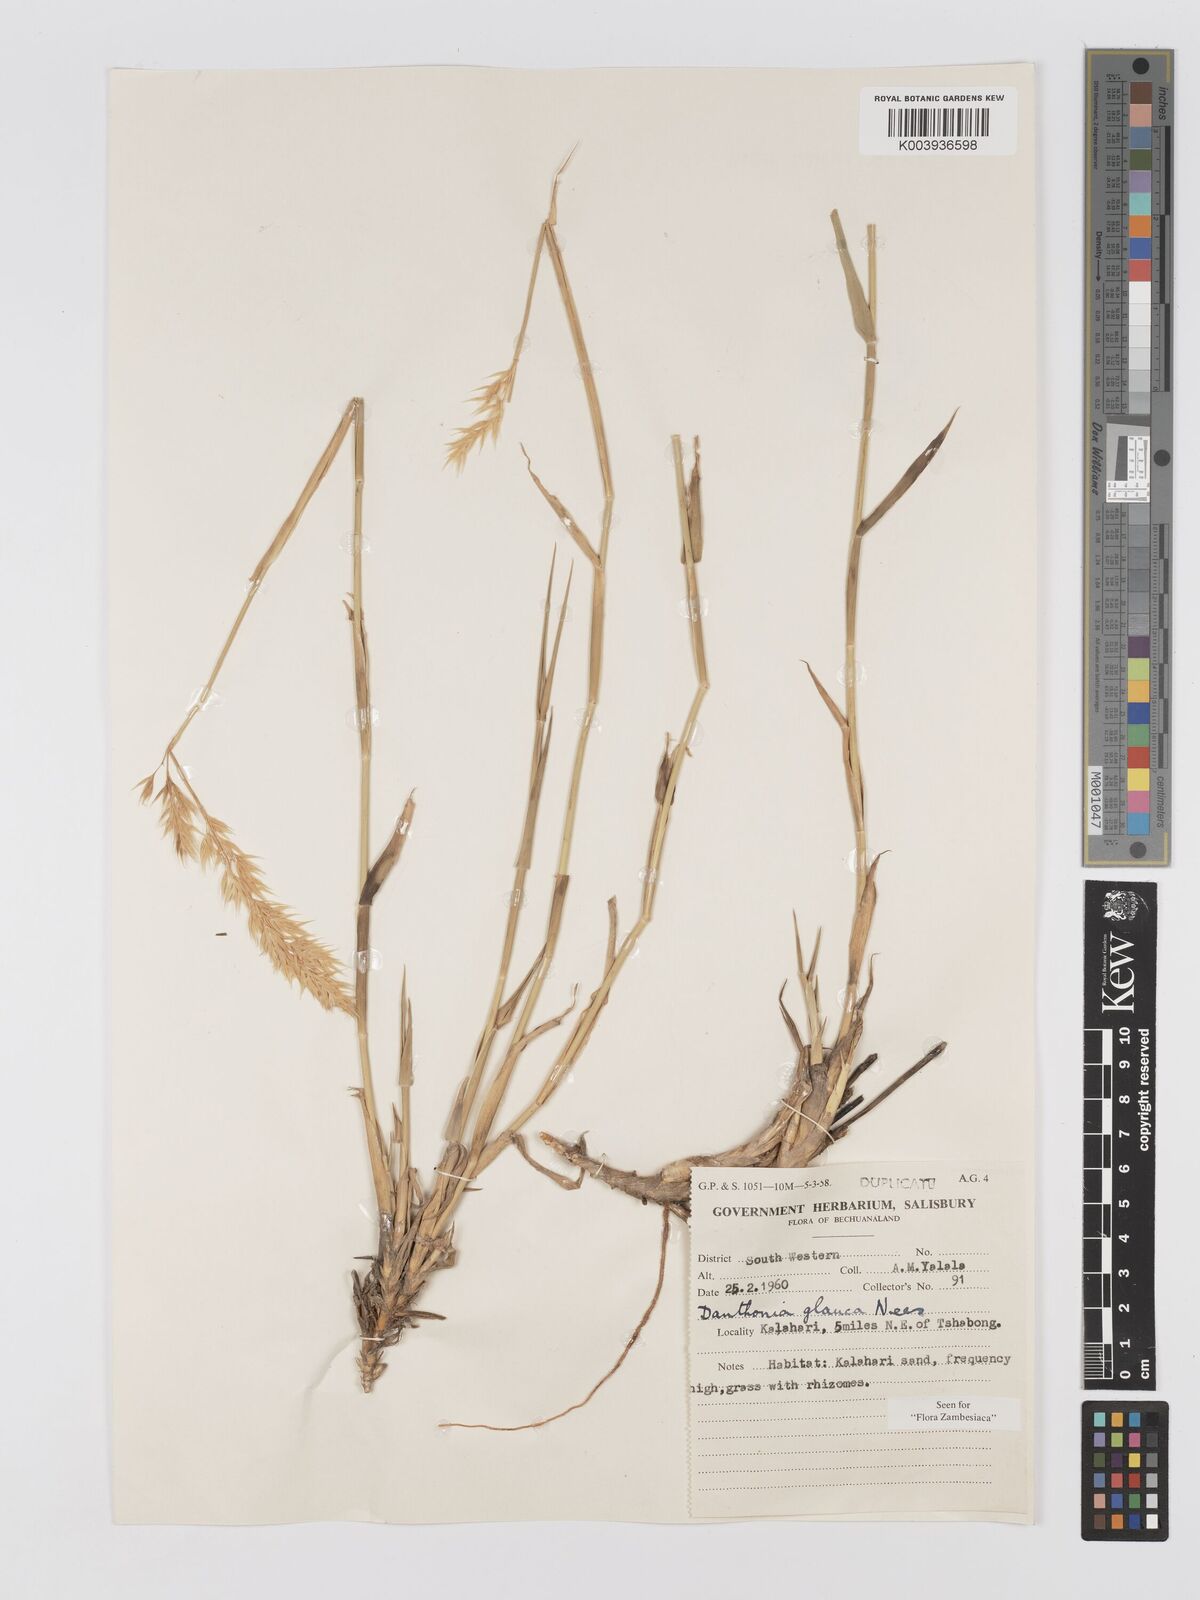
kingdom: Plantae
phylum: Tracheophyta
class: Liliopsida
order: Poales
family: Poaceae
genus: Centropodia
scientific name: Centropodia glauca
